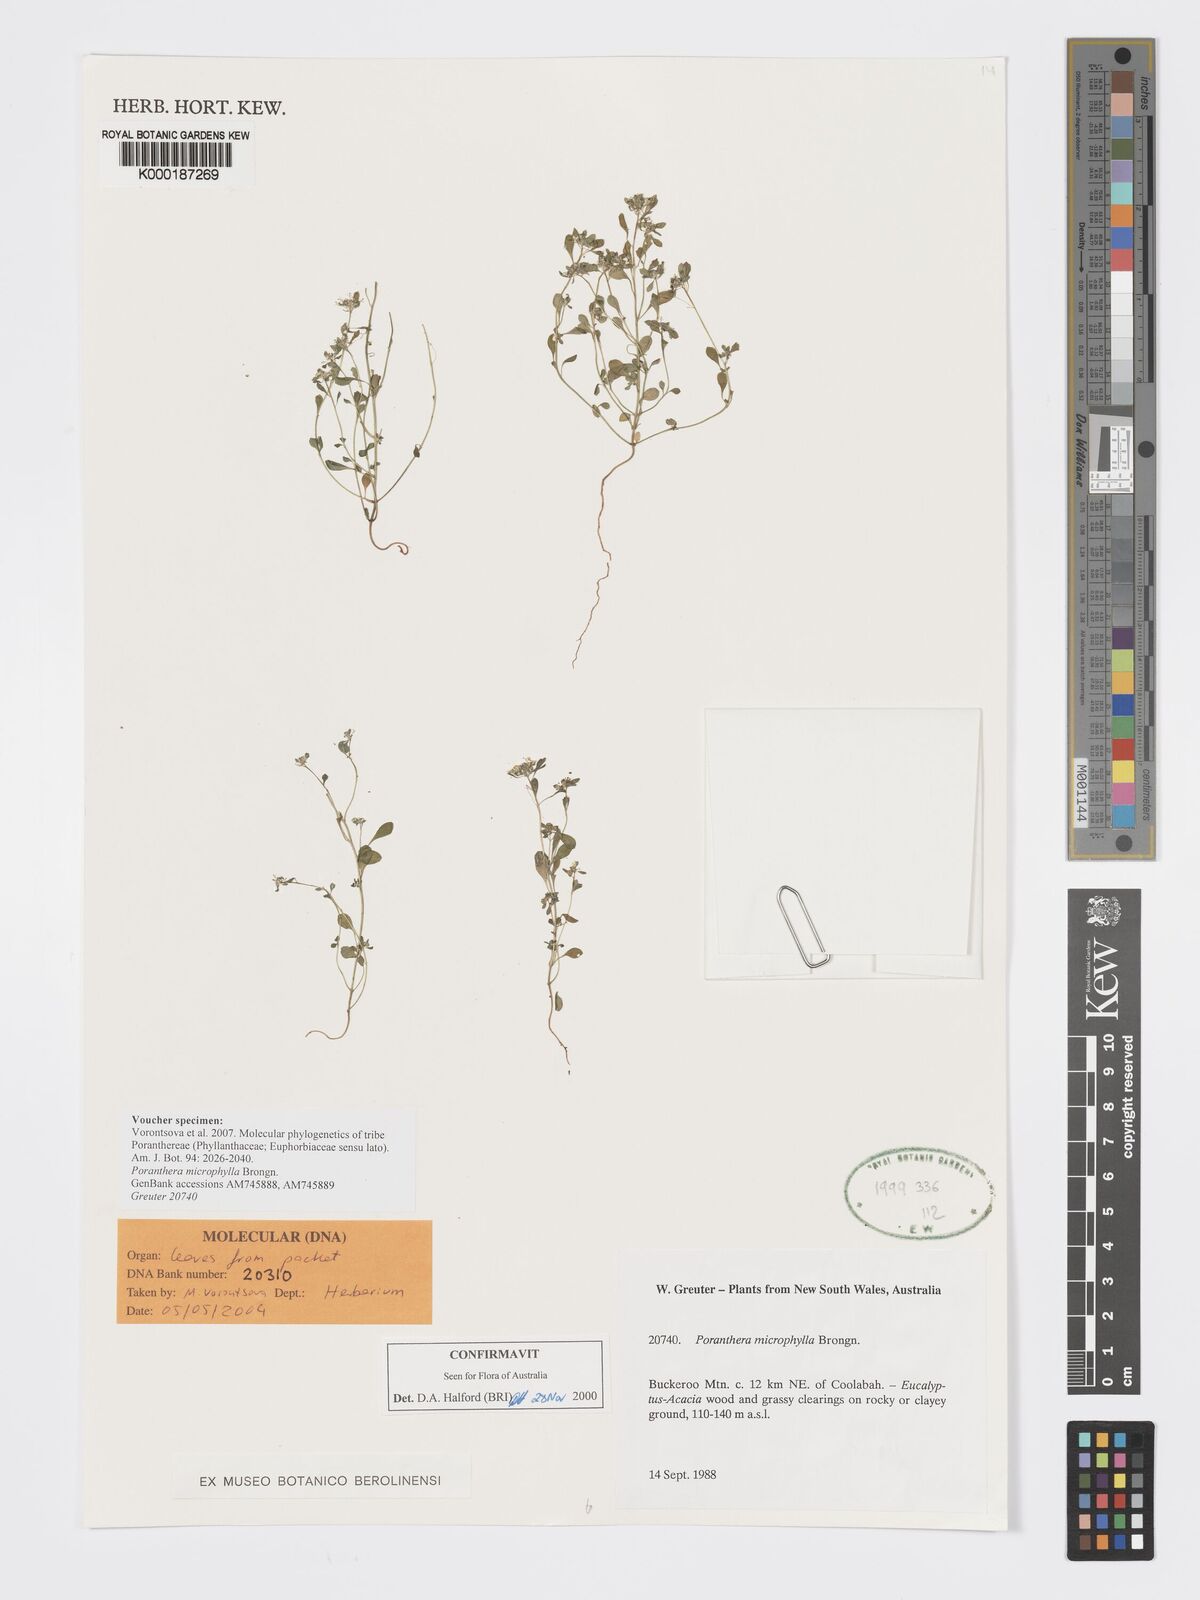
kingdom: Plantae
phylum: Tracheophyta
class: Magnoliopsida
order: Malpighiales
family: Phyllanthaceae
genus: Poranthera
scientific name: Poranthera microphylla
